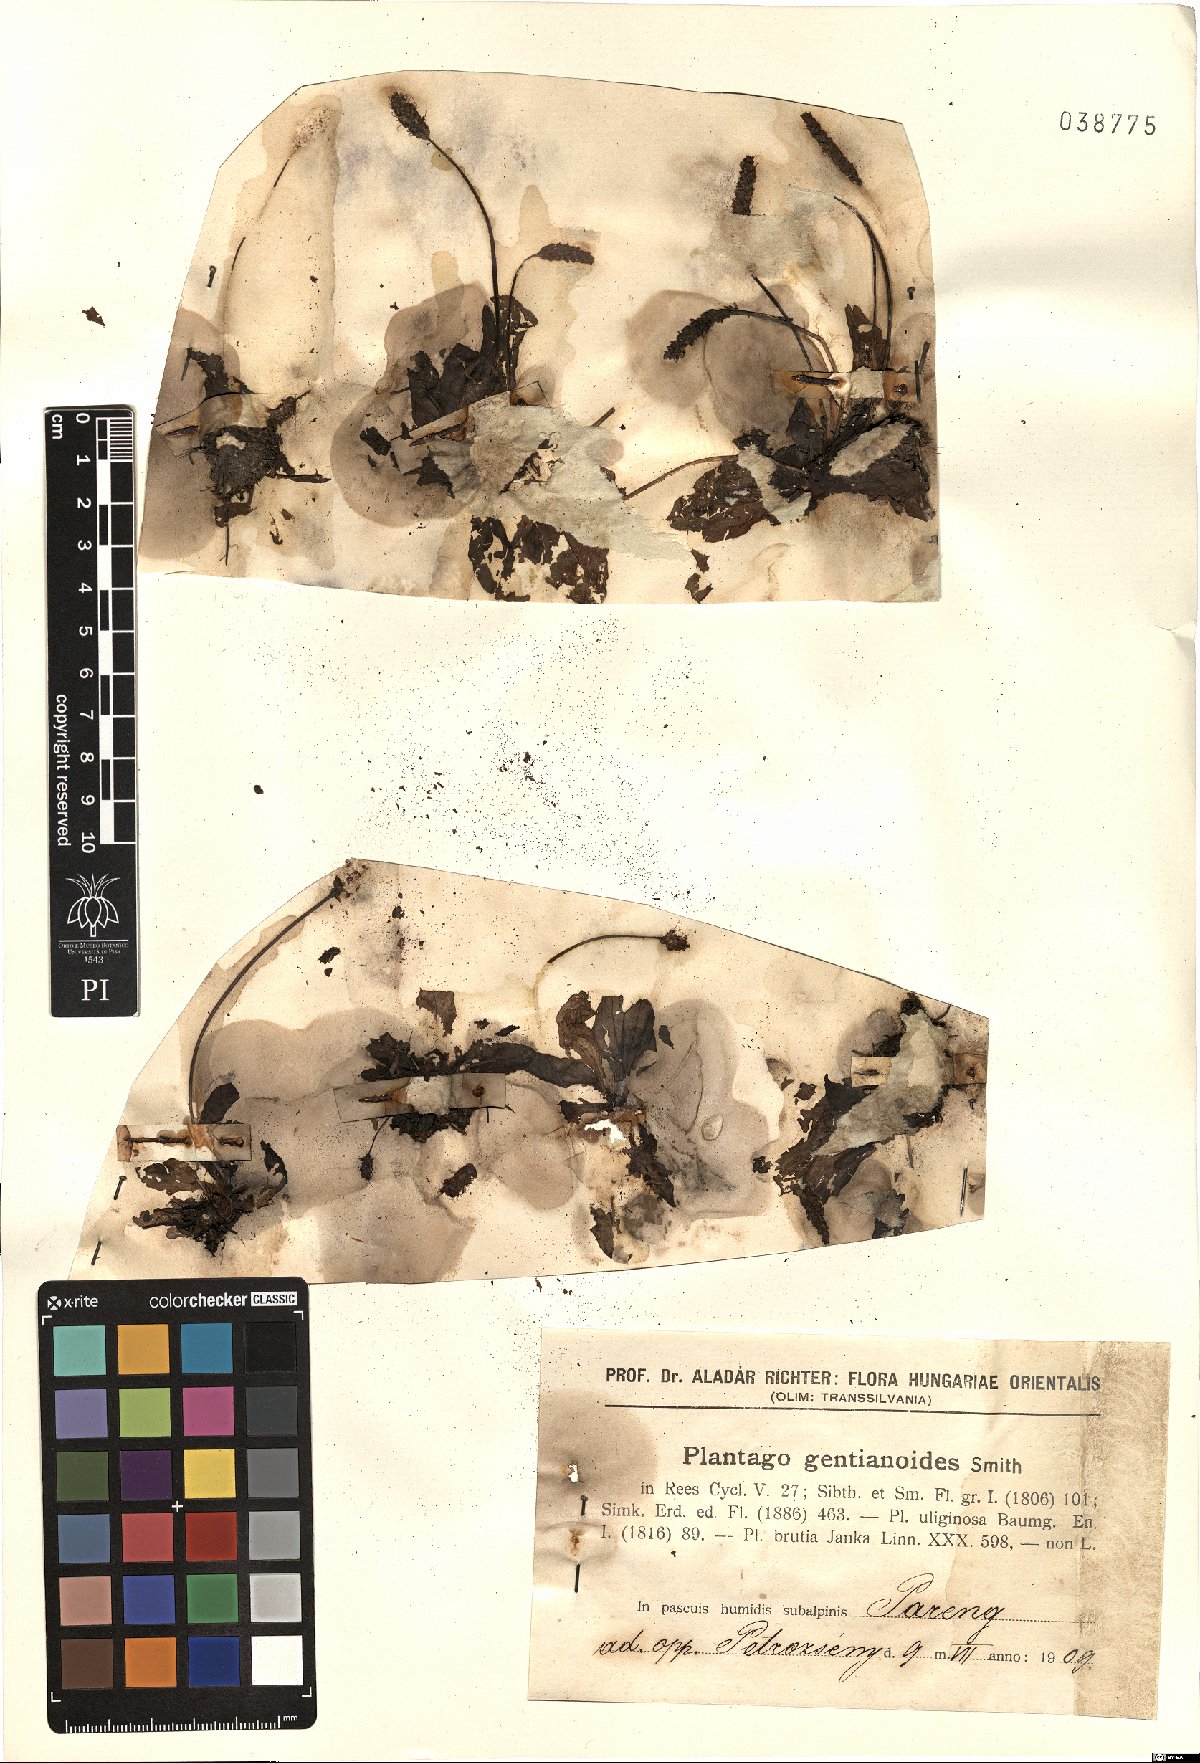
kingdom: Plantae
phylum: Tracheophyta
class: Magnoliopsida
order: Lamiales
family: Plantaginaceae
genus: Plantago
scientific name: Plantago gentianoides
